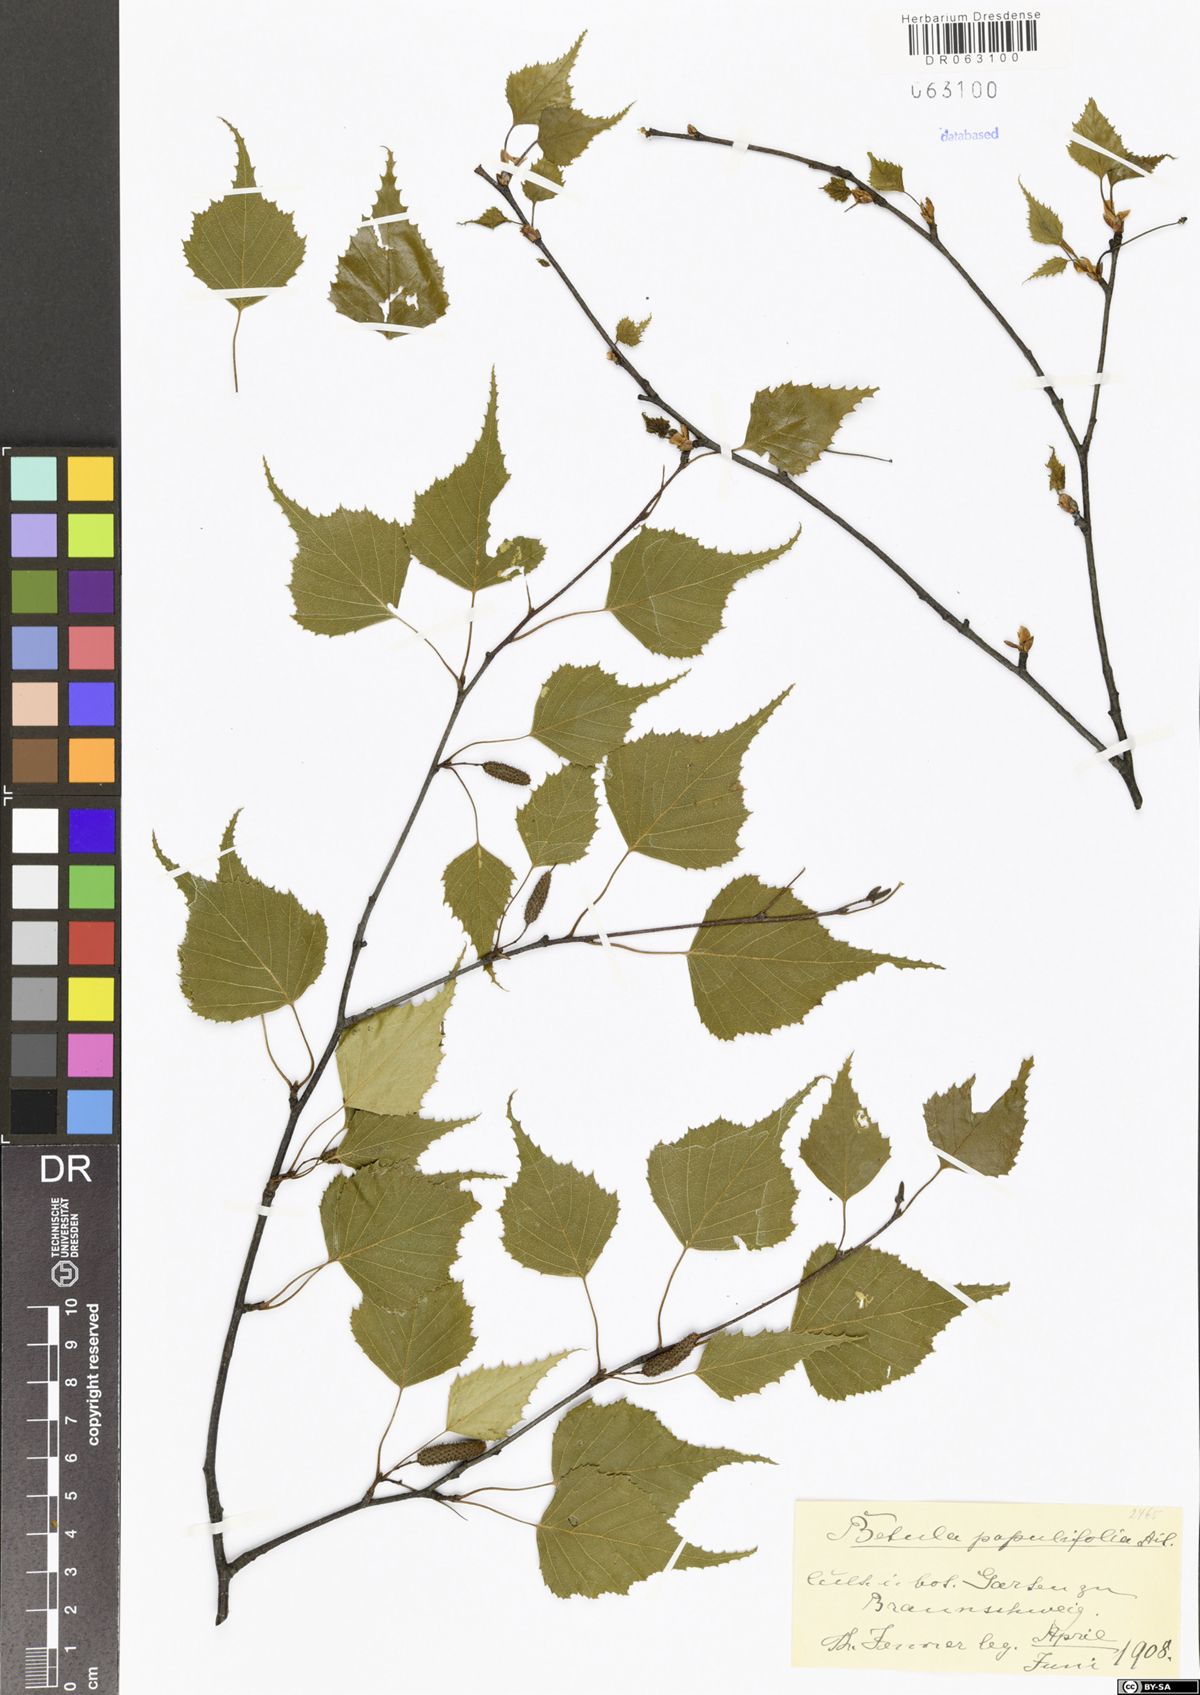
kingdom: Plantae
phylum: Tracheophyta
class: Magnoliopsida
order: Fagales
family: Betulaceae
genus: Betula
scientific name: Betula populifolia
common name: Fire birch
